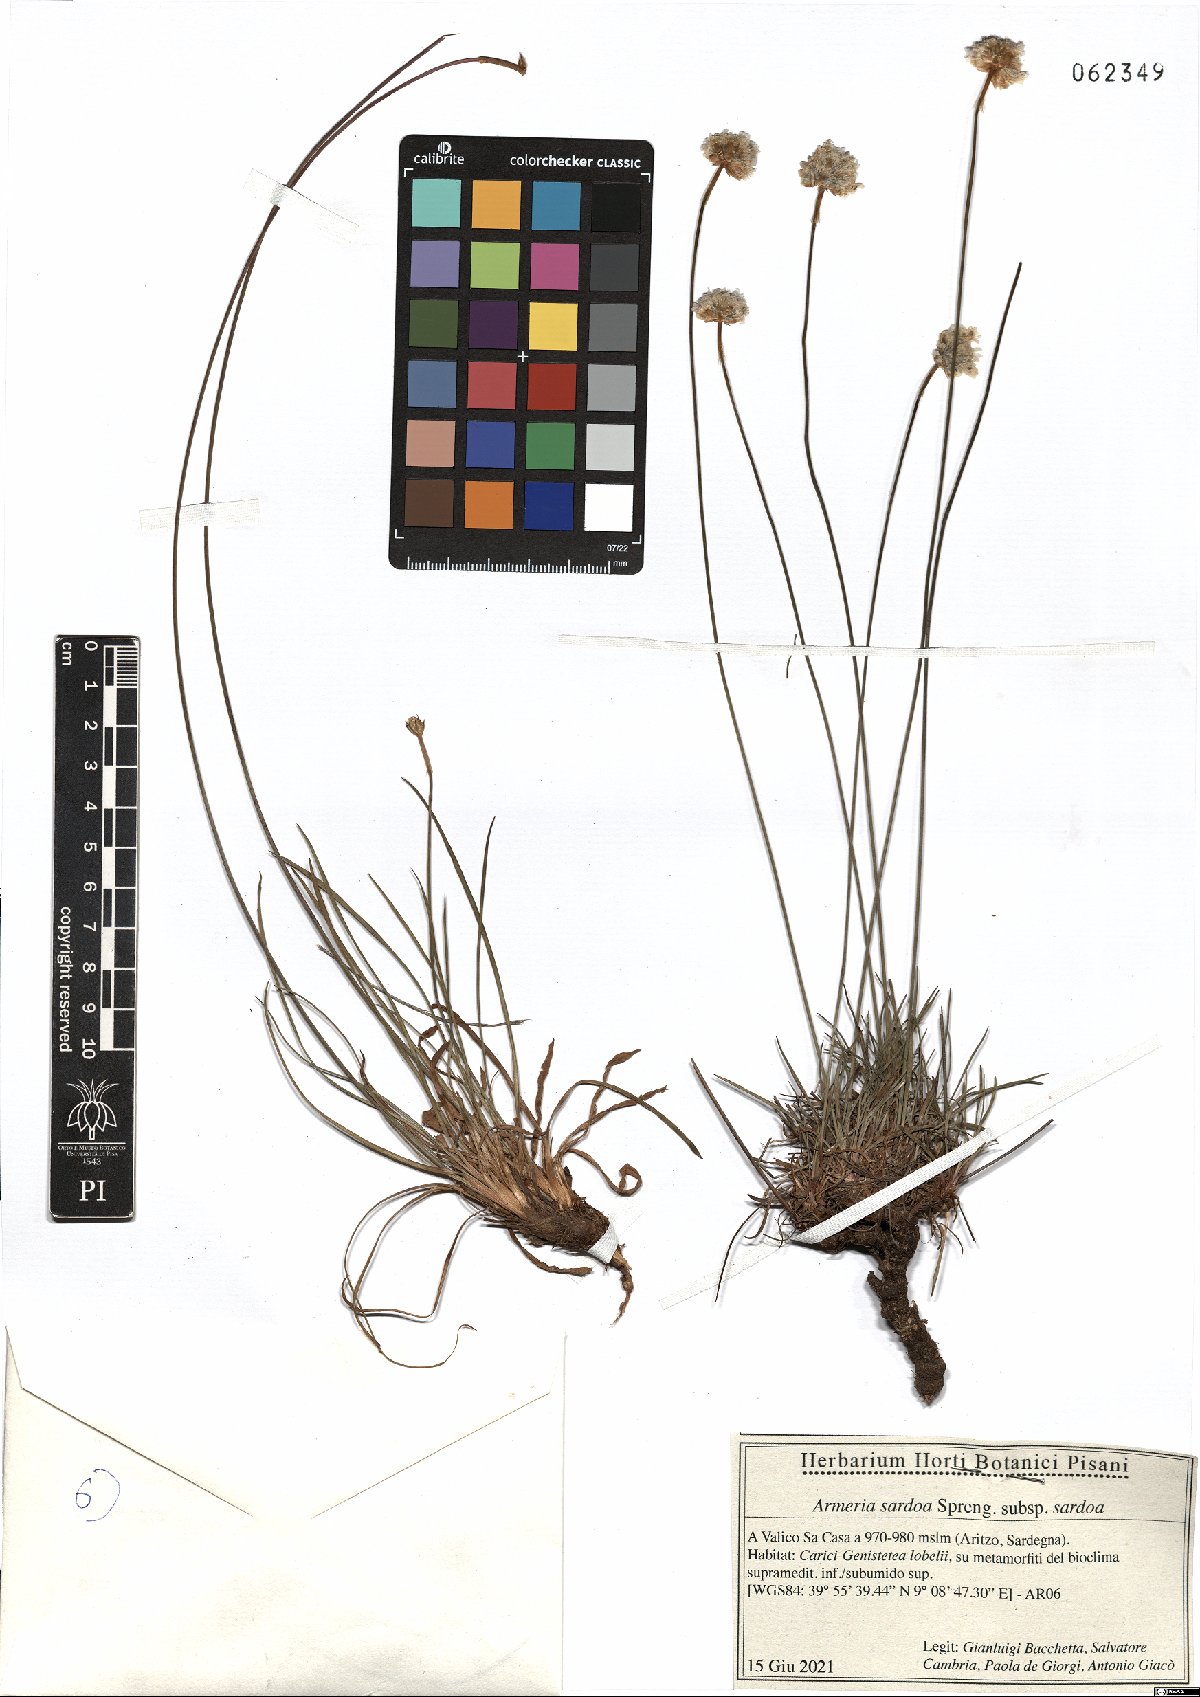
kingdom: Plantae
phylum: Tracheophyta
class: Magnoliopsida
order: Caryophyllales
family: Plumbaginaceae
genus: Armeria
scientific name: Armeria sardoa
